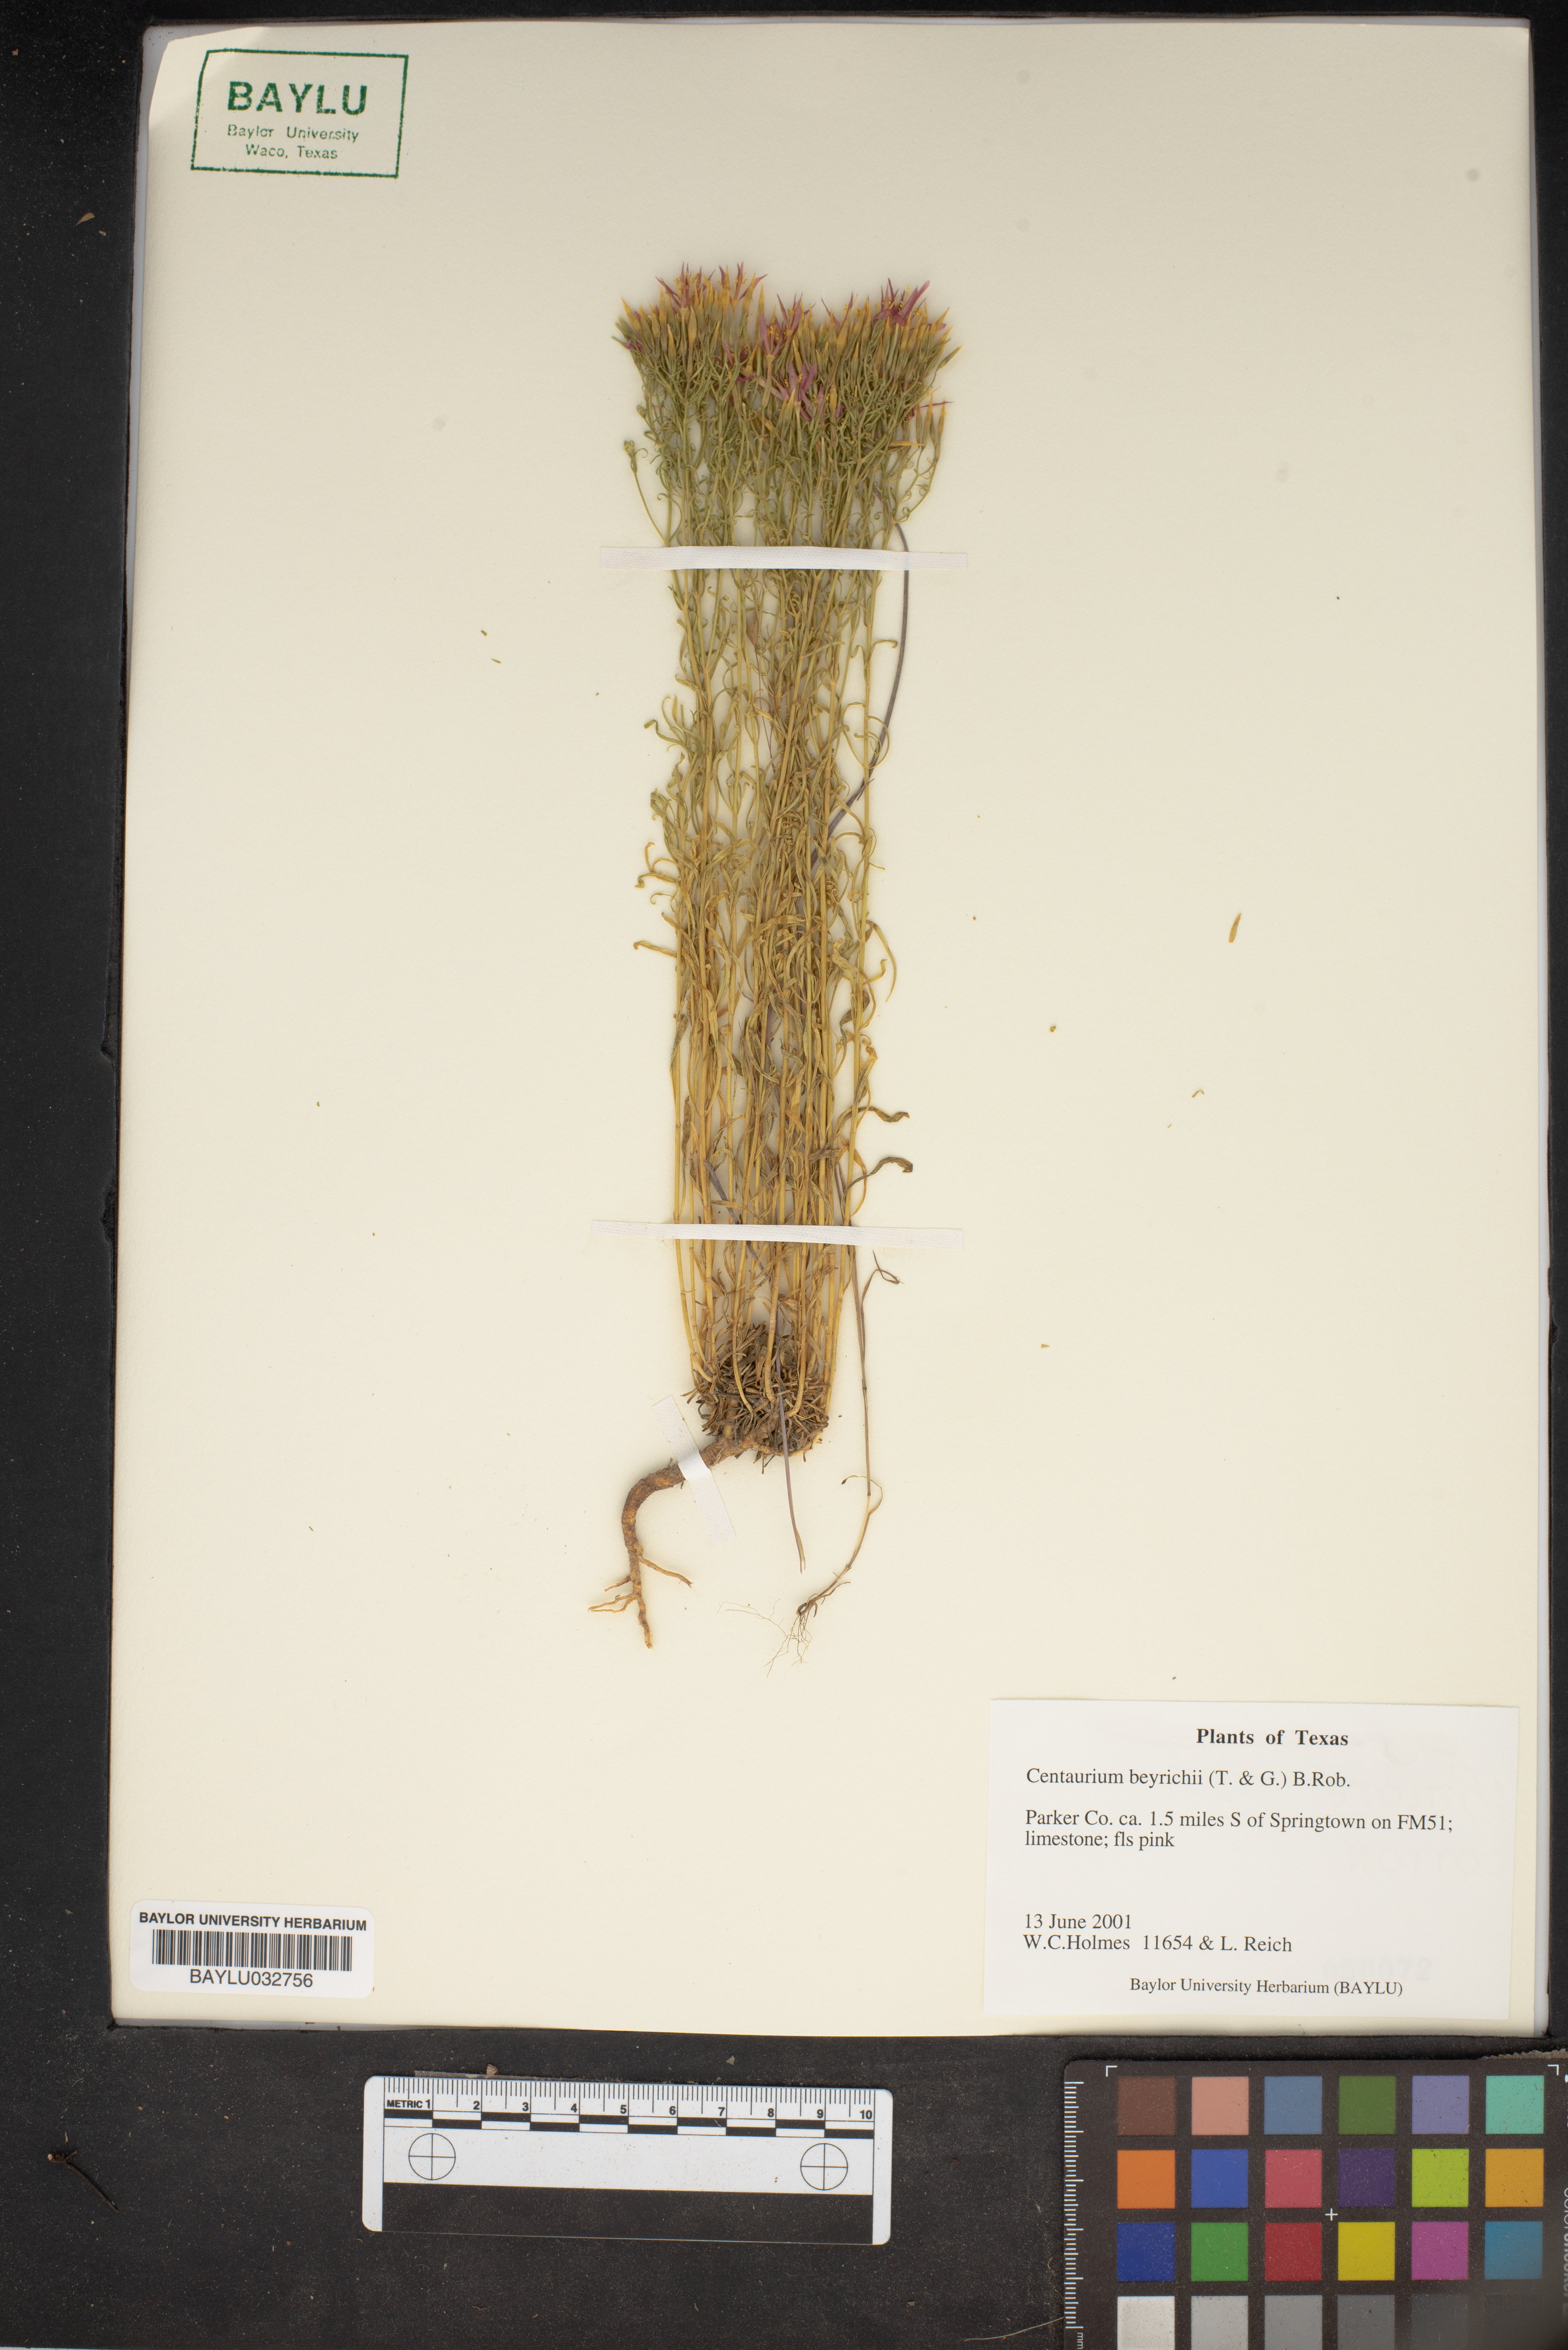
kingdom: Plantae
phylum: Tracheophyta
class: Magnoliopsida
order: Gentianales
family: Gentianaceae
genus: Zeltnera
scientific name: Zeltnera beyrichii
